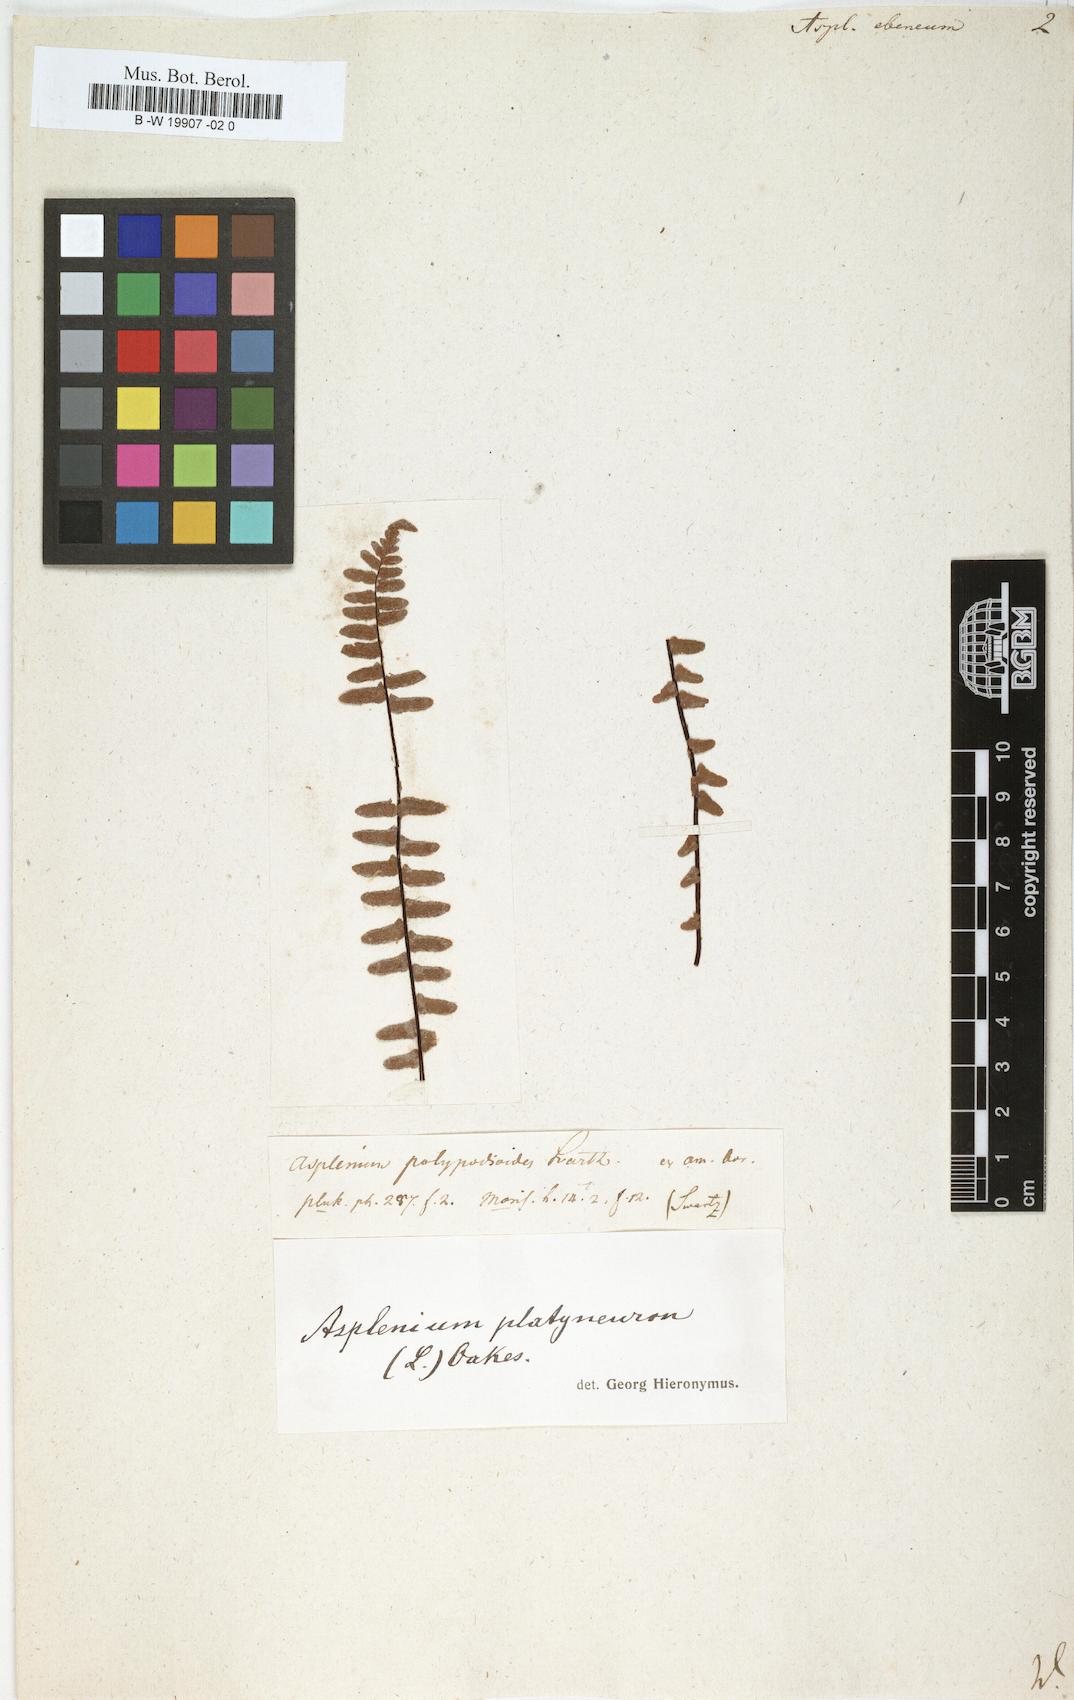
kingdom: Plantae
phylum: Tracheophyta
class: Polypodiopsida
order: Polypodiales
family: Aspleniaceae
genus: Asplenium
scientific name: Asplenium ebenum
